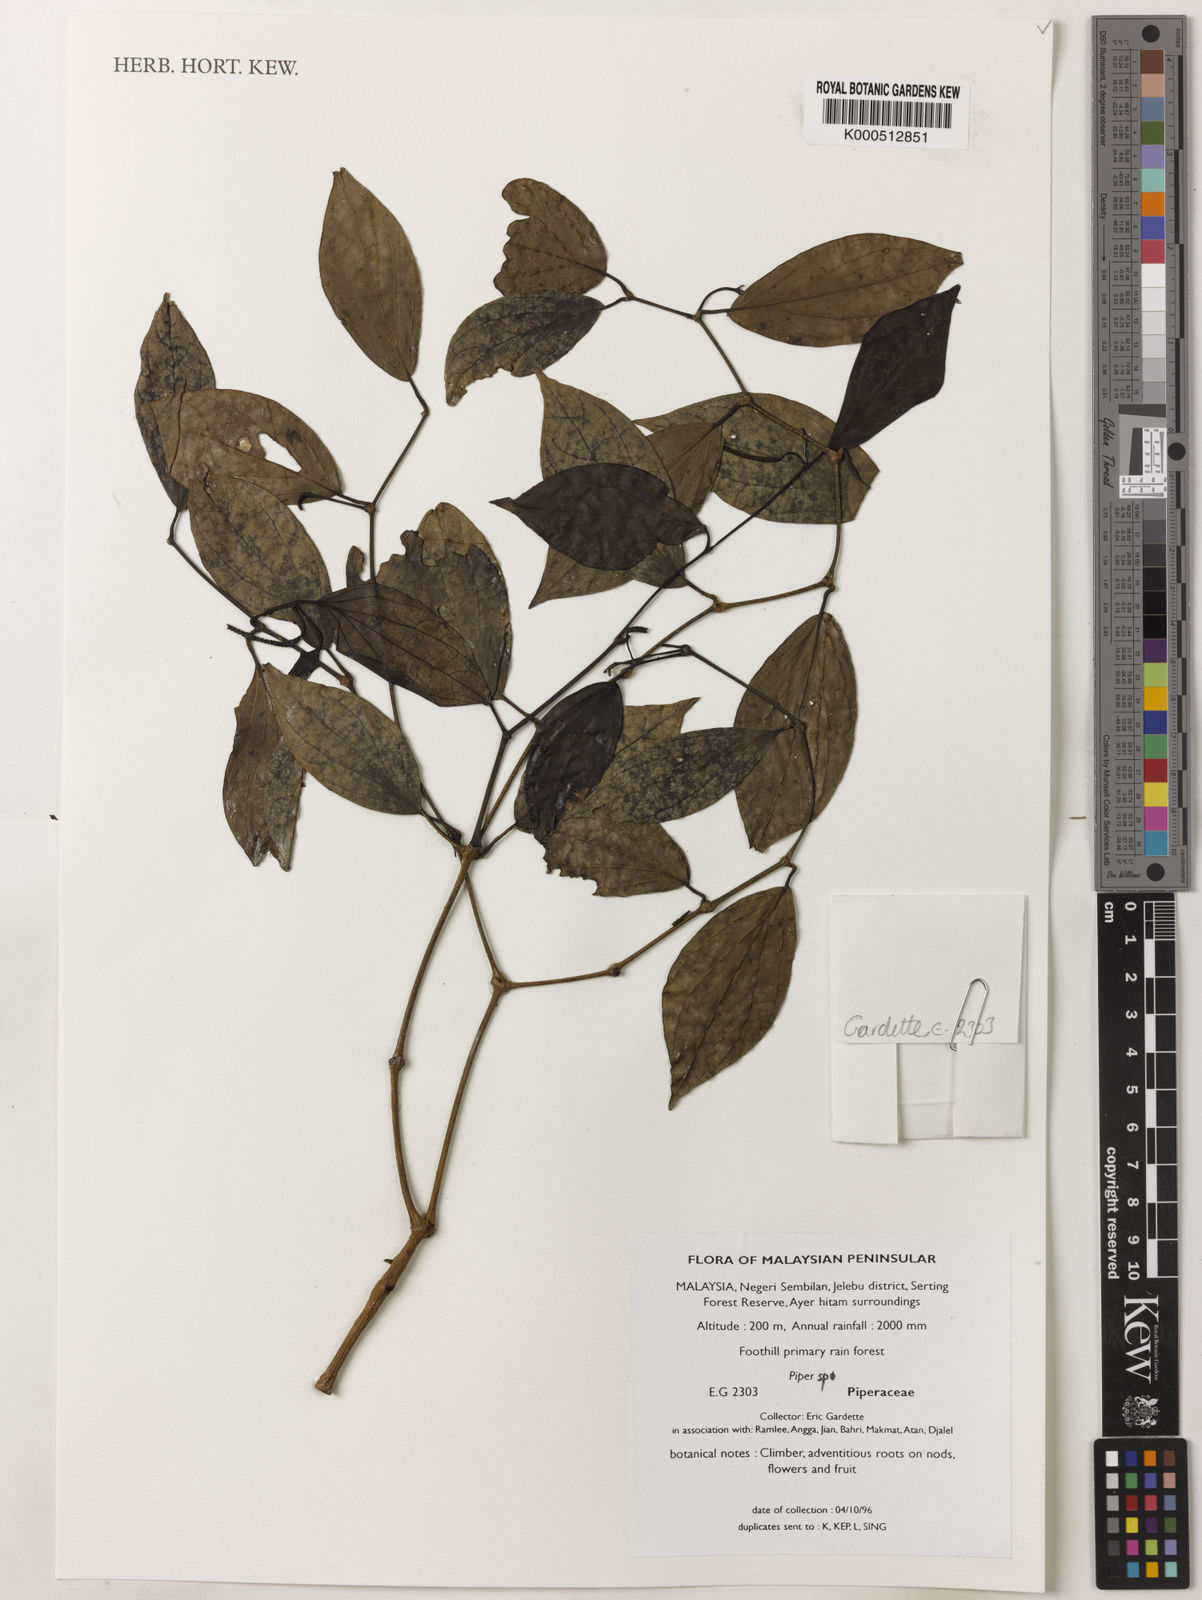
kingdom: Plantae
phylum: Tracheophyta
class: Magnoliopsida
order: Piperales
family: Piperaceae
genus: Piper
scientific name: Piper
